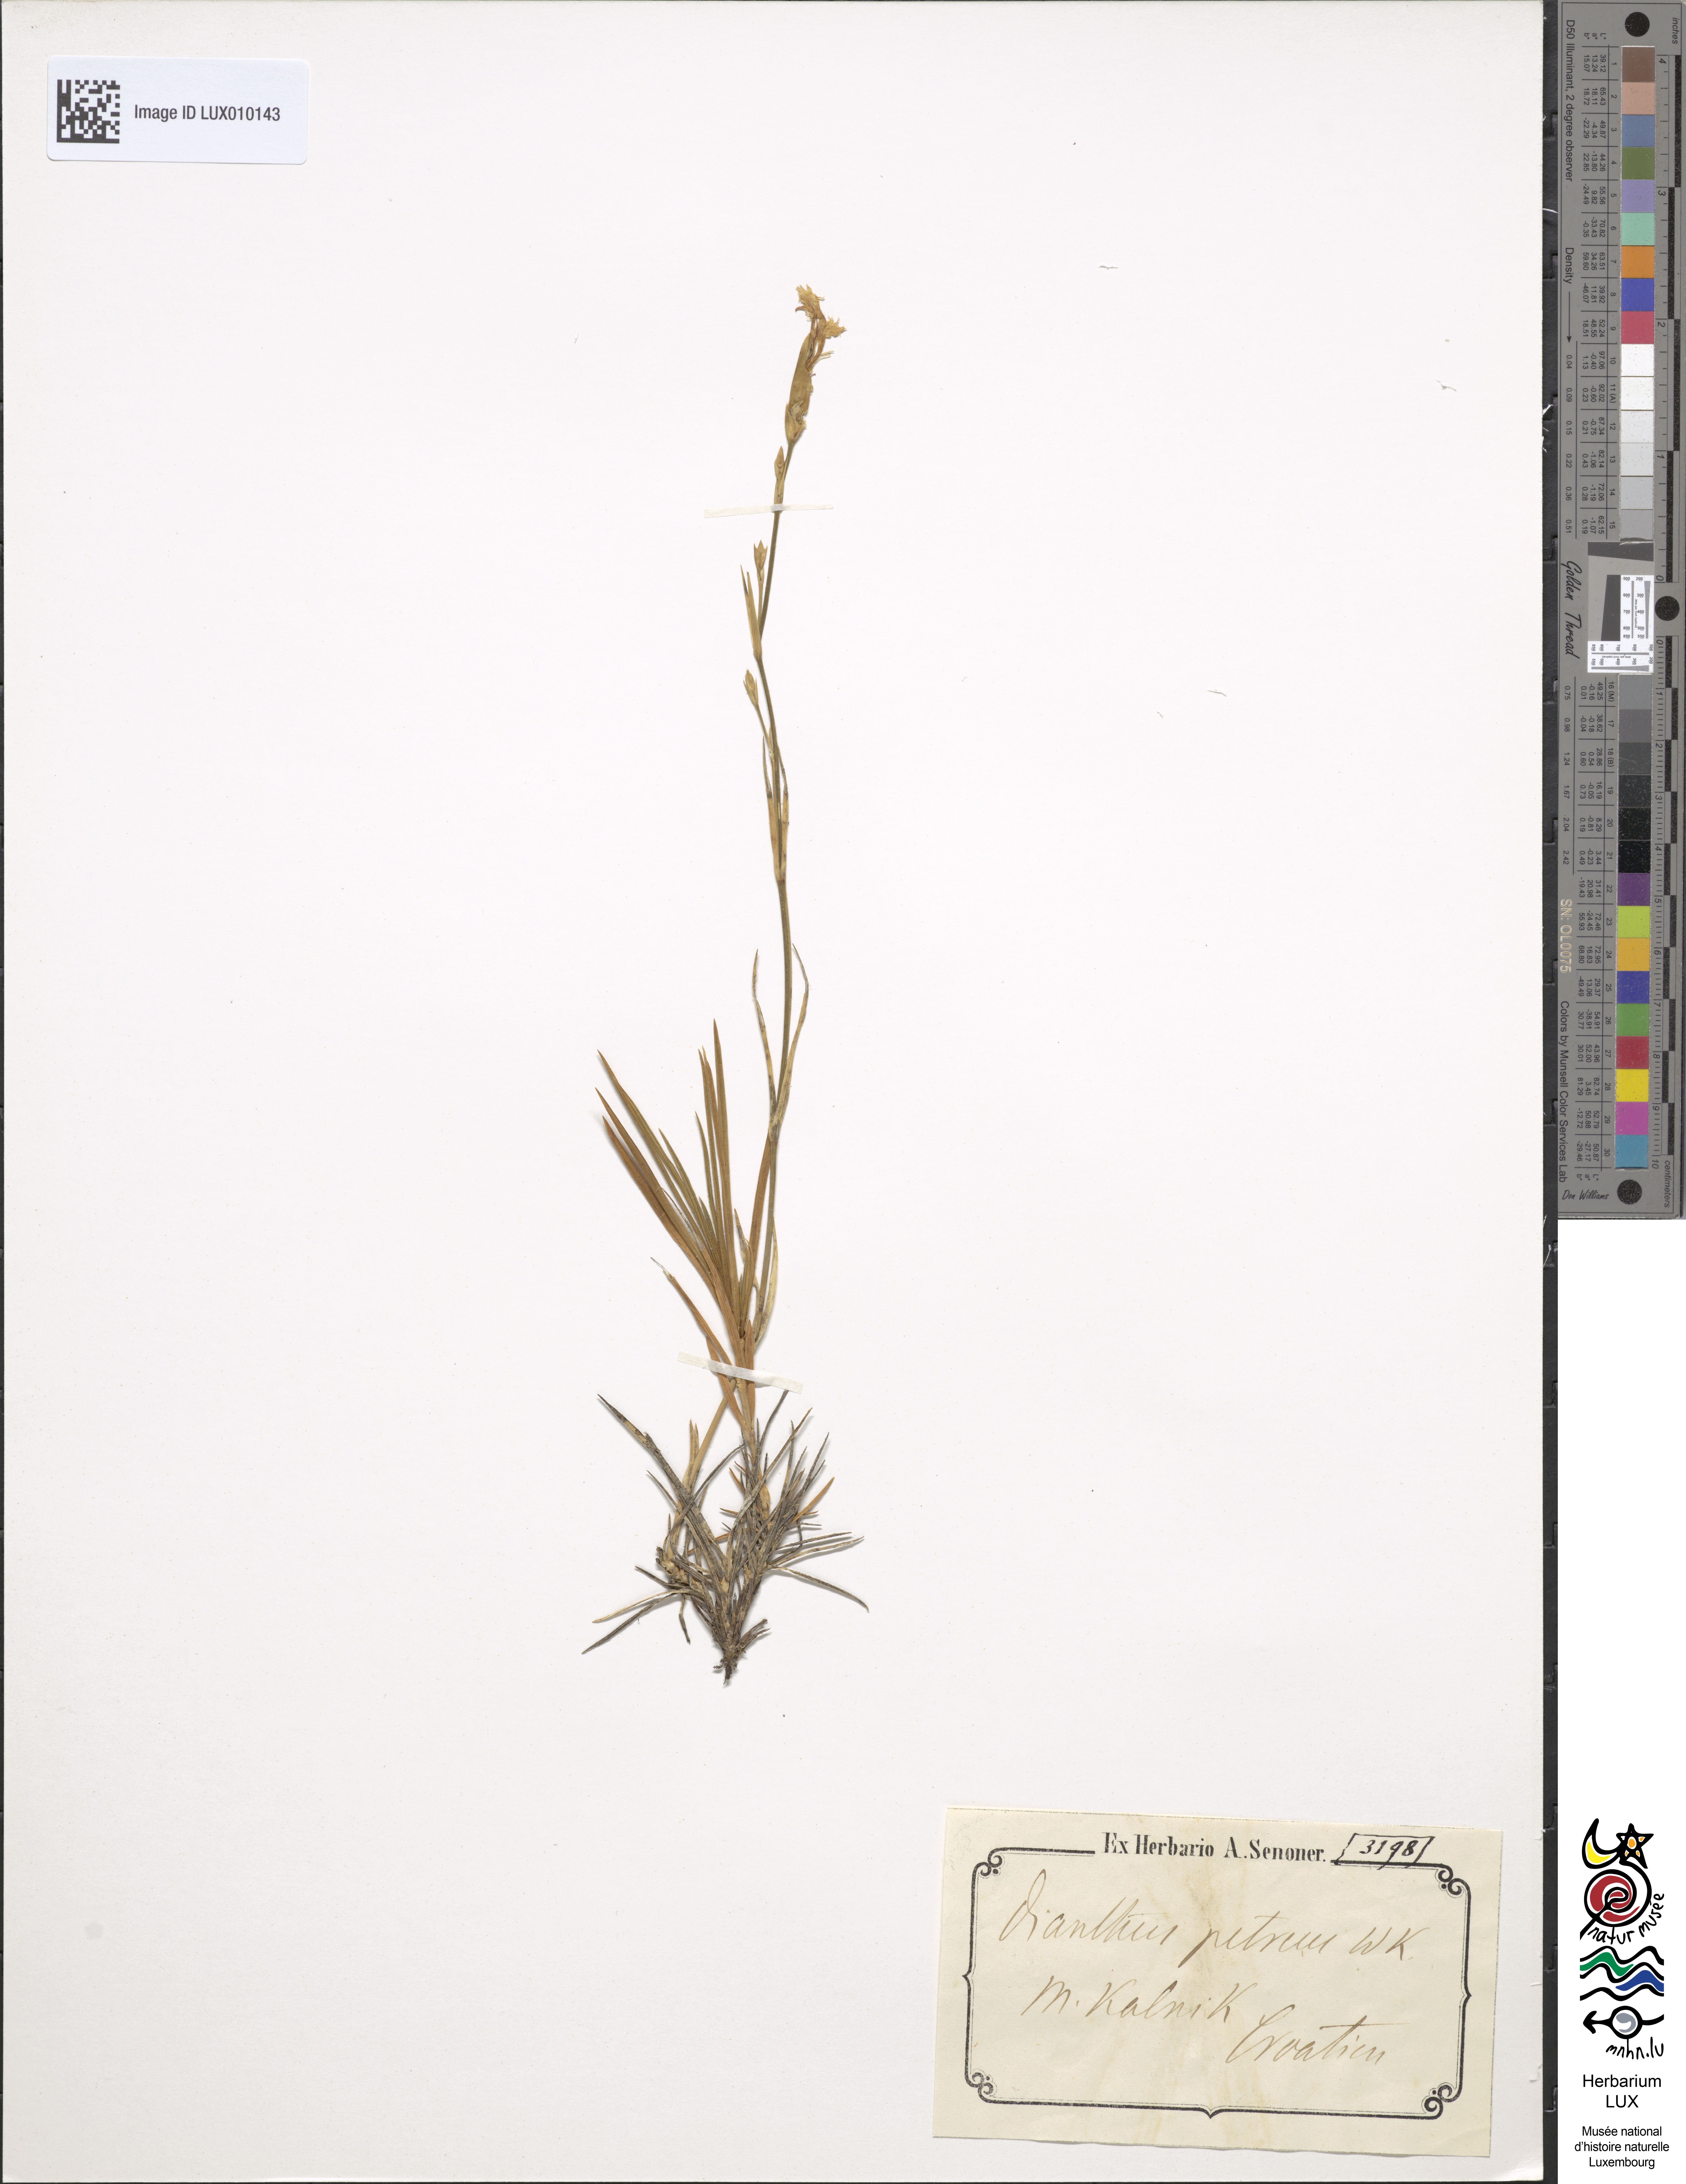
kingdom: Plantae
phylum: Tracheophyta
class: Magnoliopsida
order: Caryophyllales
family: Caryophyllaceae
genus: Dianthus
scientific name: Dianthus
